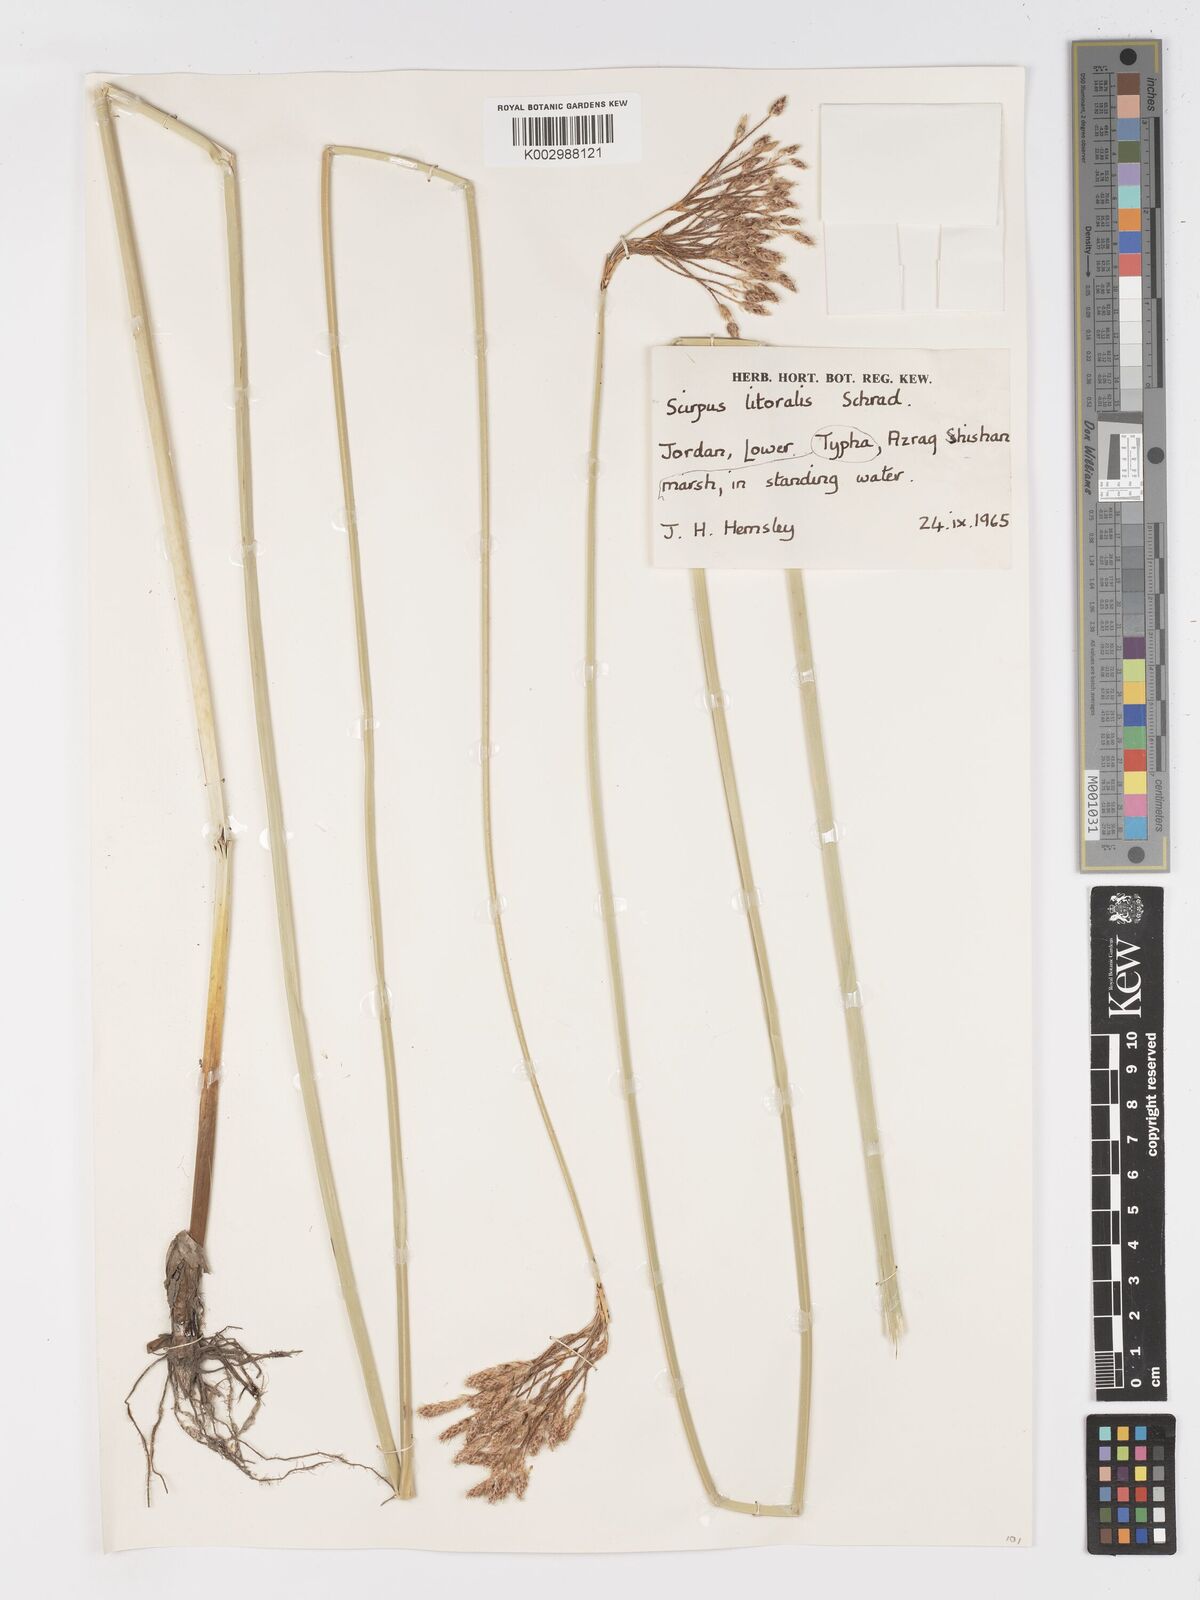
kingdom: Plantae
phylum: Tracheophyta
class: Liliopsida
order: Poales
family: Cyperaceae
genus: Schoenoplectus
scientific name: Schoenoplectus litoralis
